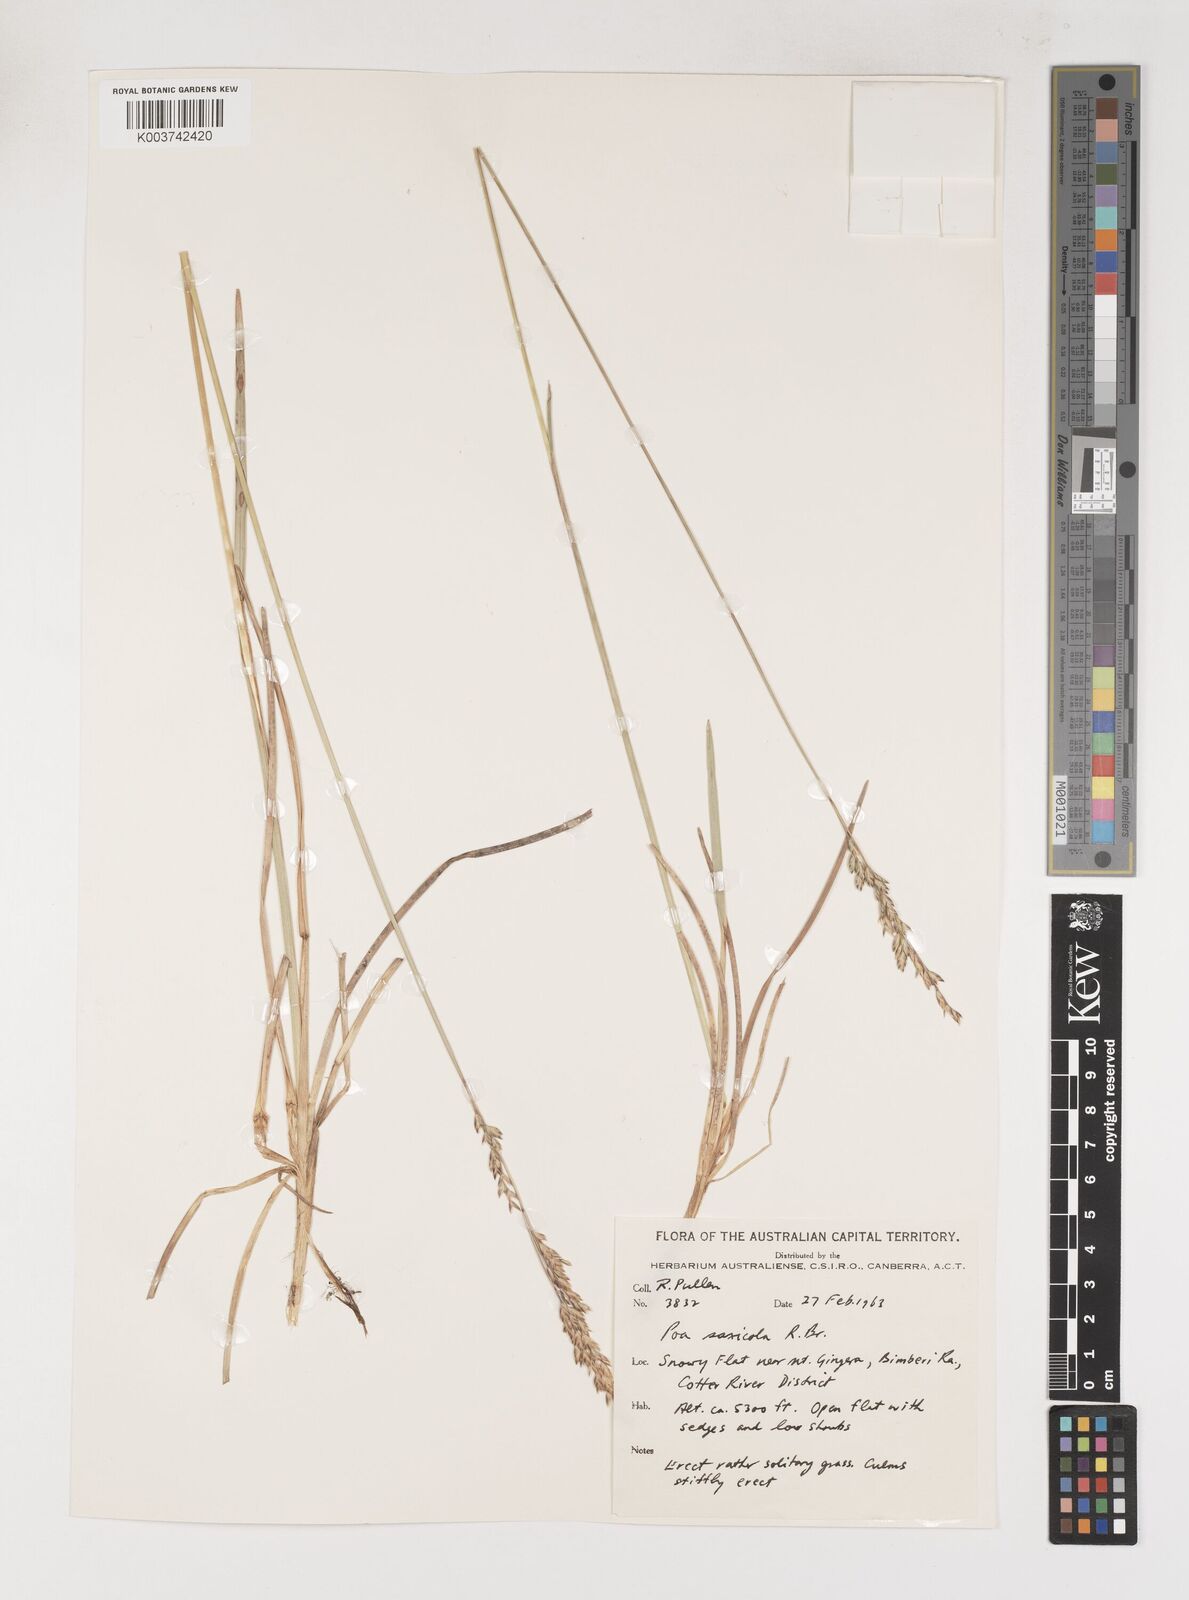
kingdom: Plantae
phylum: Tracheophyta
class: Liliopsida
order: Poales
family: Poaceae
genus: Saxipoa
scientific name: Saxipoa saxicola
